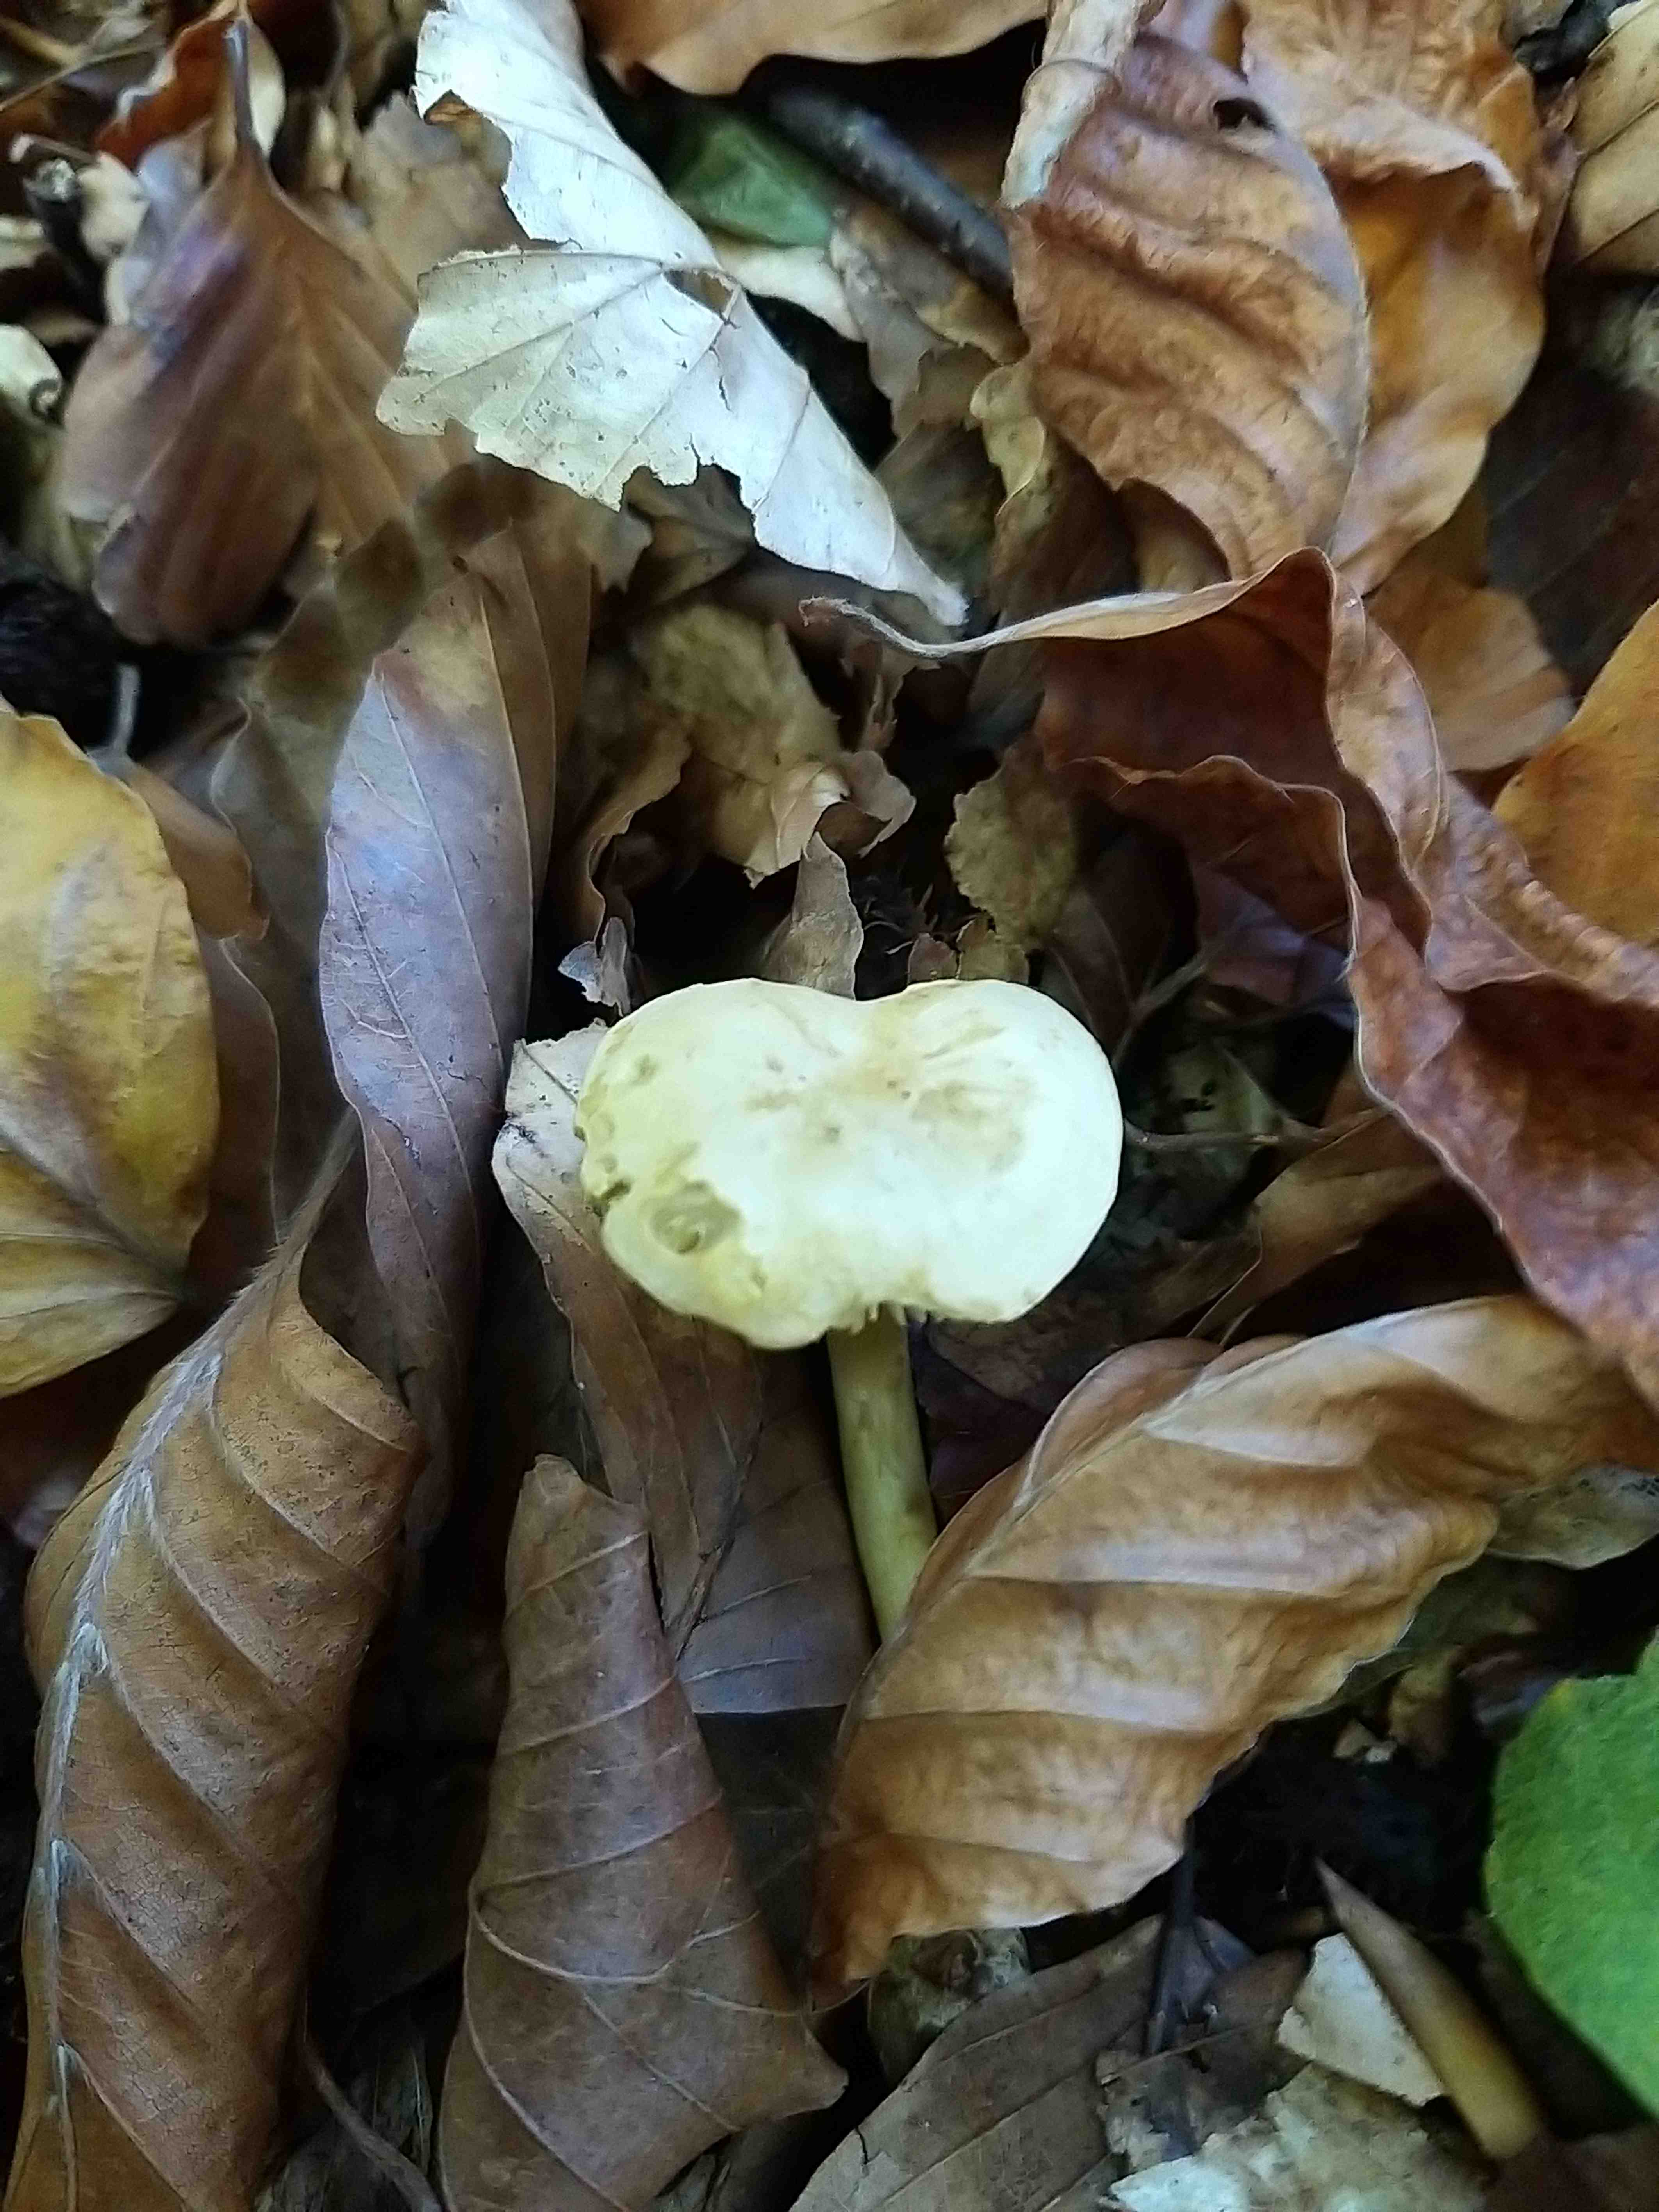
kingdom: Fungi
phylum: Basidiomycota
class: Agaricomycetes
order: Agaricales
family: Tricholomataceae
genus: Tricholoma
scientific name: Tricholoma sulphureum
